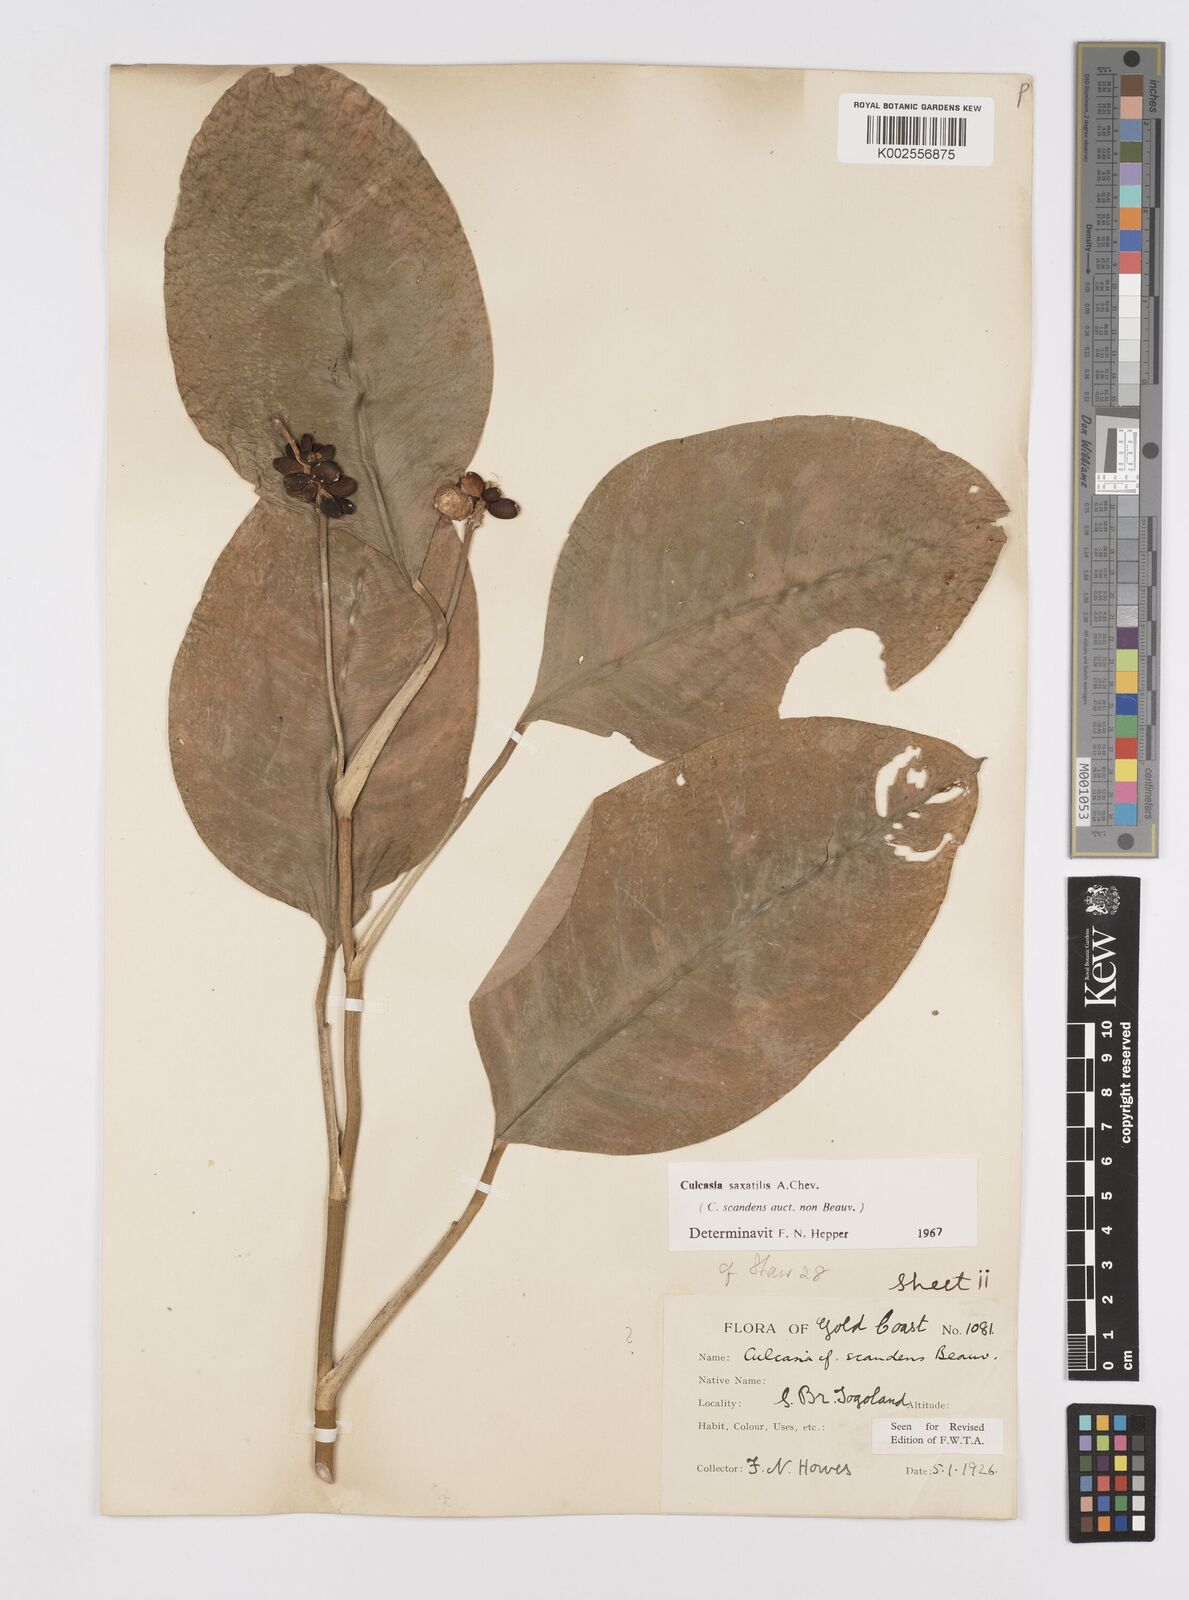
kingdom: Plantae
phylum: Tracheophyta
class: Liliopsida
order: Alismatales
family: Araceae
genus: Culcasia
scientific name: Culcasia scandens
